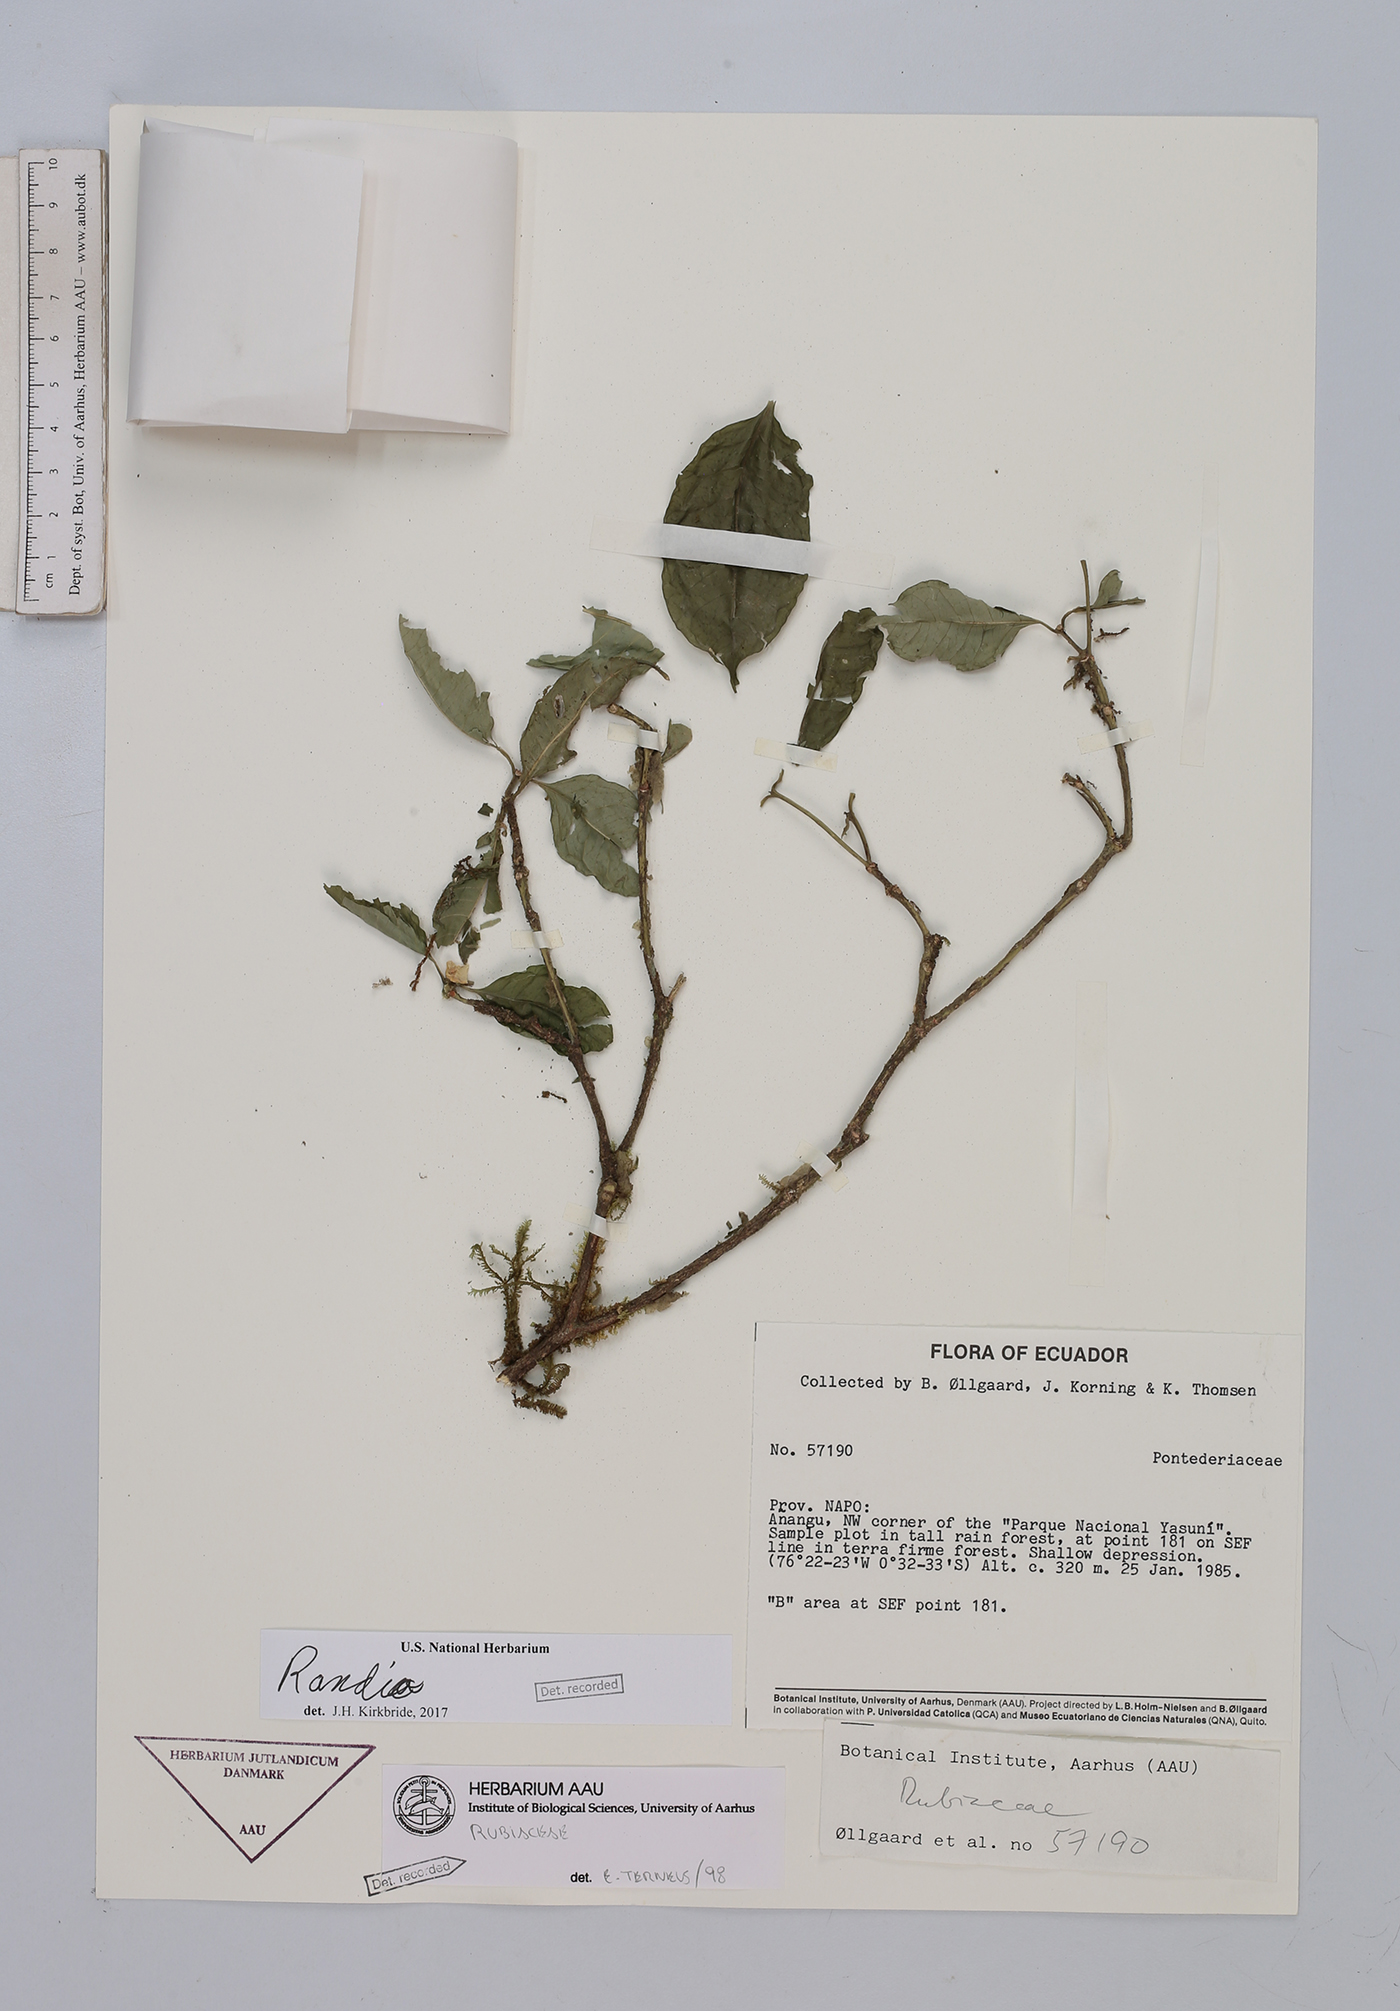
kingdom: Plantae
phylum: Tracheophyta
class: Magnoliopsida
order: Gentianales
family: Rubiaceae
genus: Randia
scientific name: Randia
